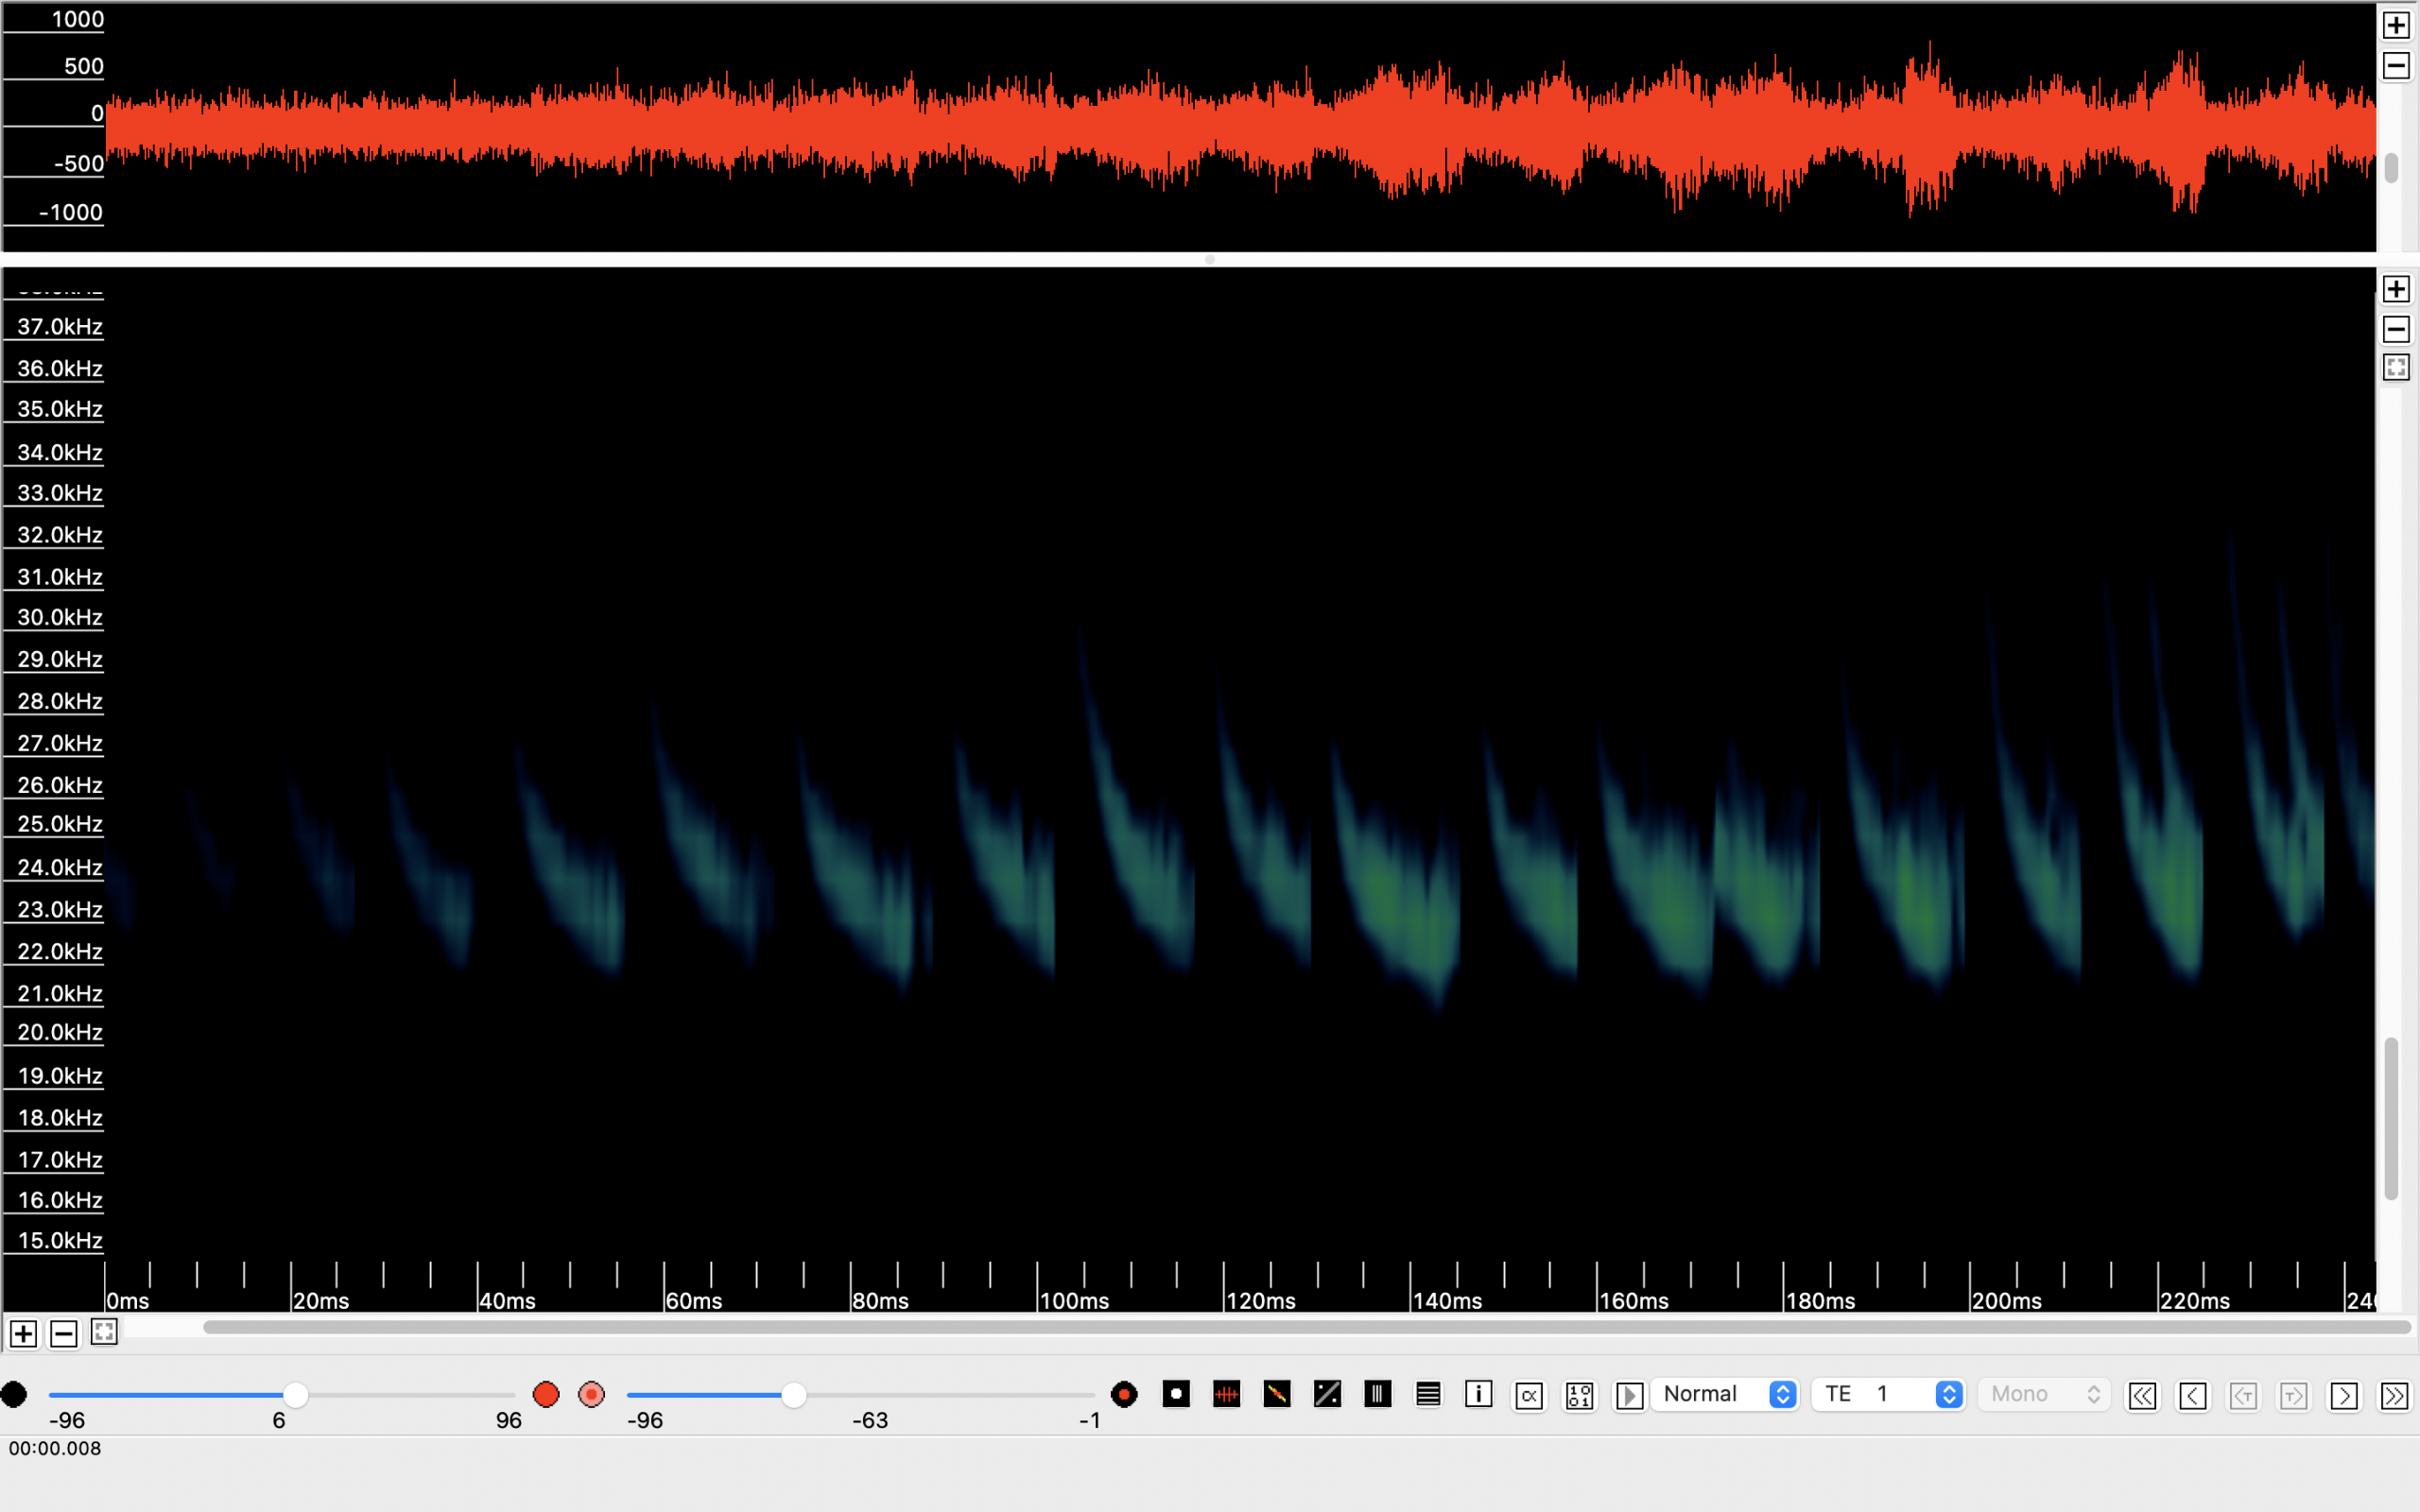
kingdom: Animalia
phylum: Chordata
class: Mammalia
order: Chiroptera
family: Vespertilionidae
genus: Nyctalus
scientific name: Nyctalus noctula
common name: Brunflagermus
